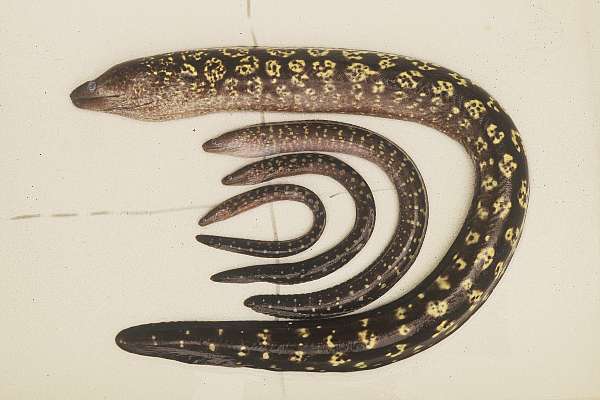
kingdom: Animalia
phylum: Chordata
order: Anguilliformes
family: Muraenidae
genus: Muraena
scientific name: Muraena helena
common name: Mediterranean moray
